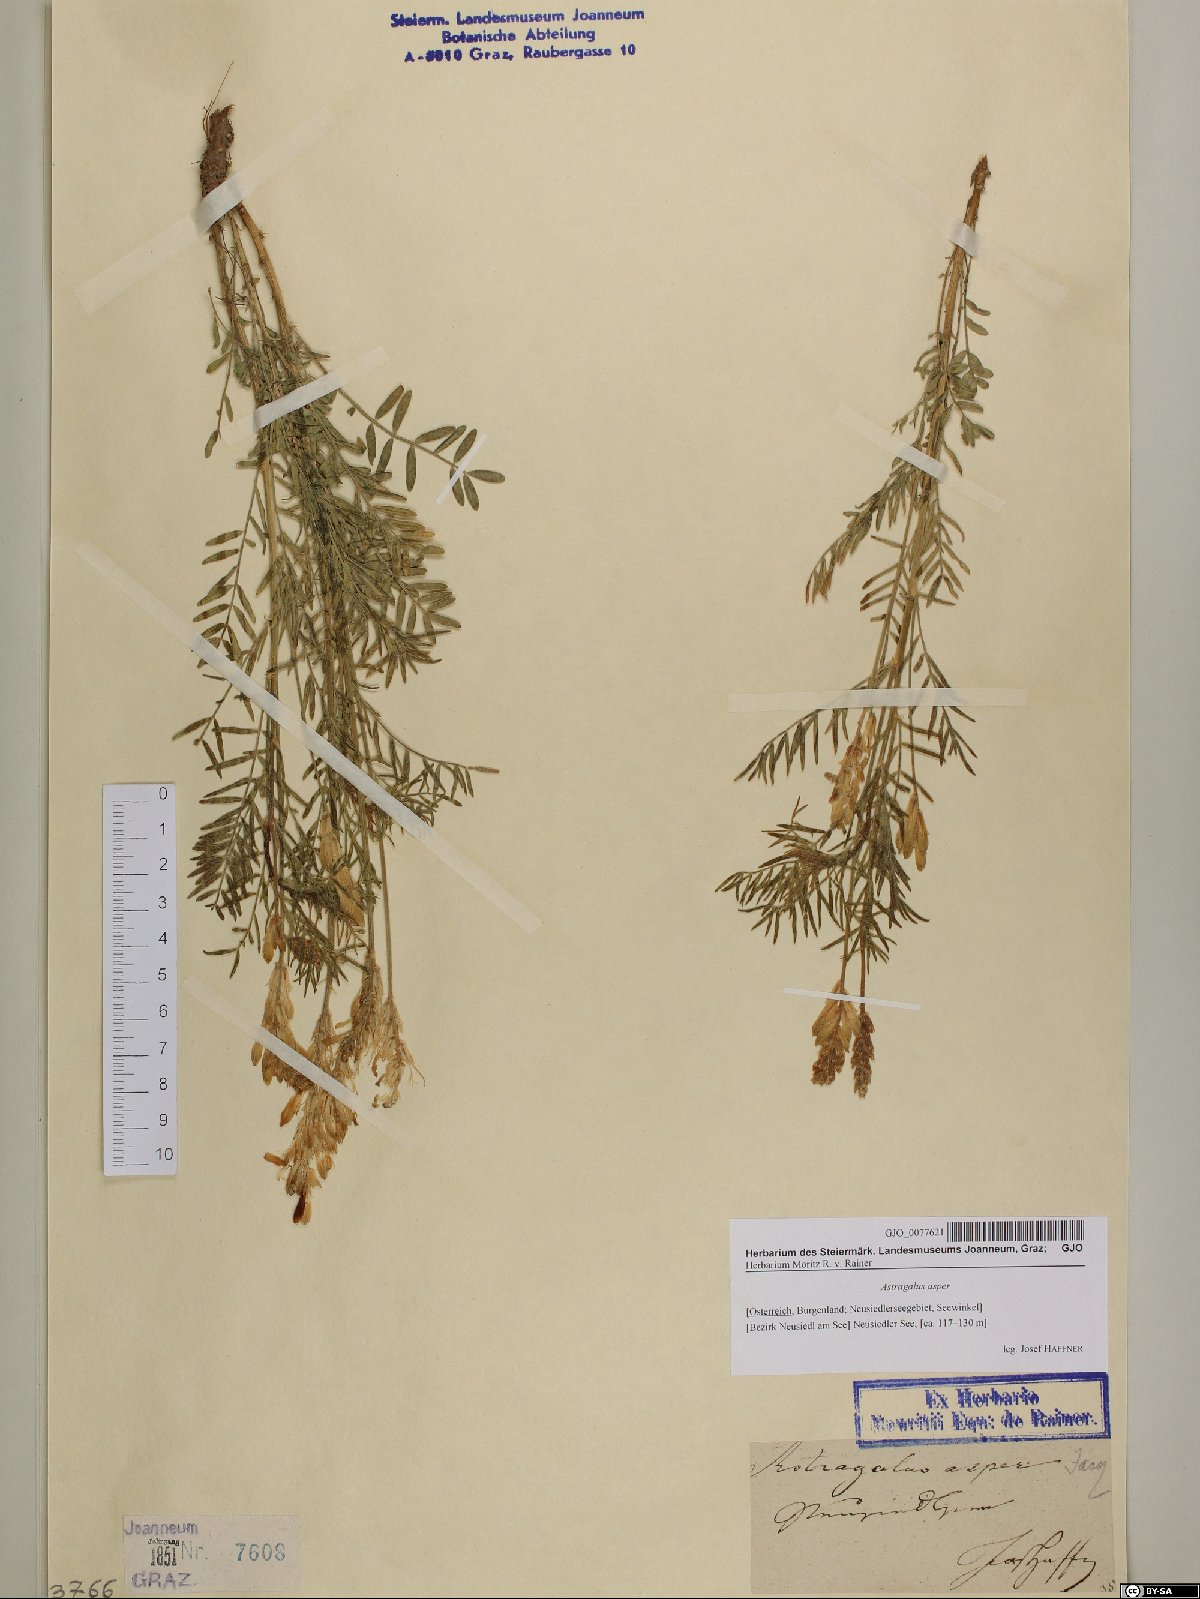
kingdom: Plantae
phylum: Tracheophyta
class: Magnoliopsida
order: Fabales
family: Fabaceae
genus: Astragalus
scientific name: Astragalus asper
